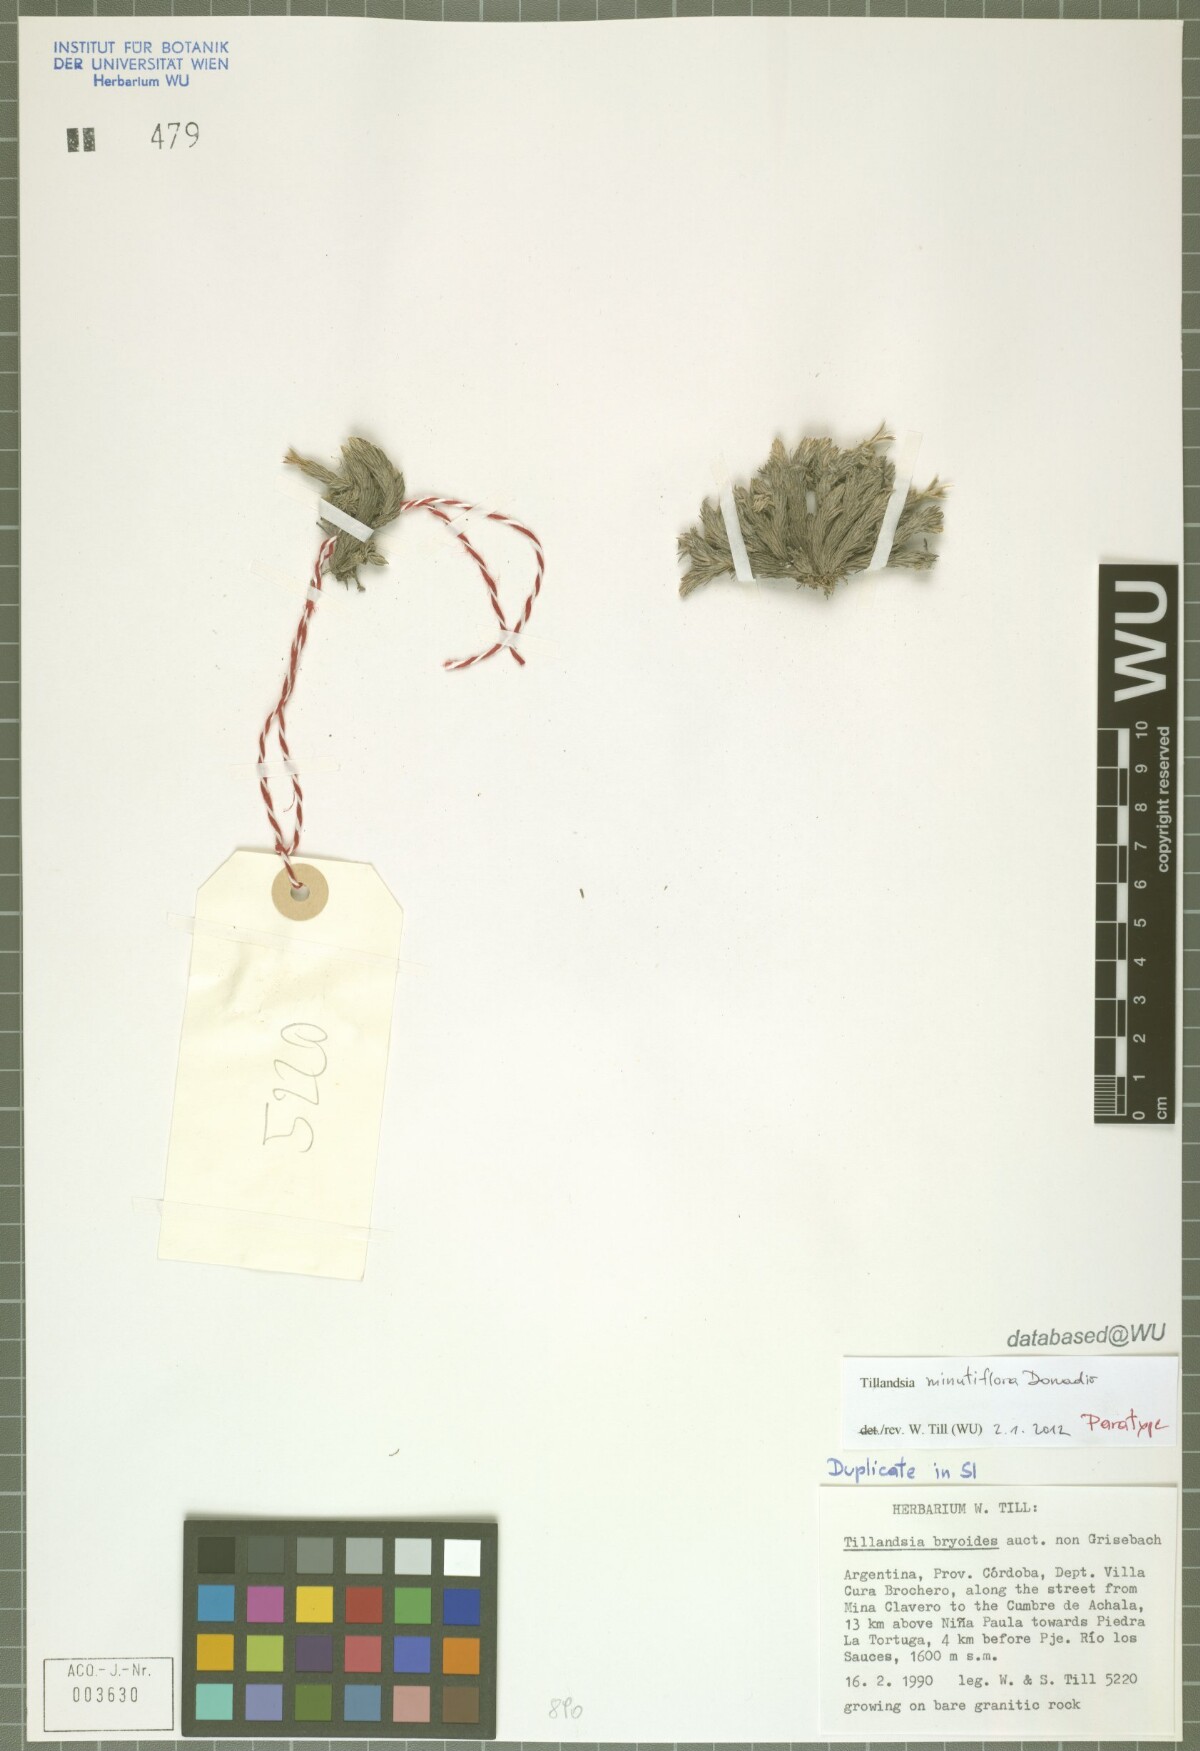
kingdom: Plantae
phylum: Tracheophyta
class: Liliopsida
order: Poales
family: Bromeliaceae
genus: Tillandsia
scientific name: Tillandsia minutiflora
